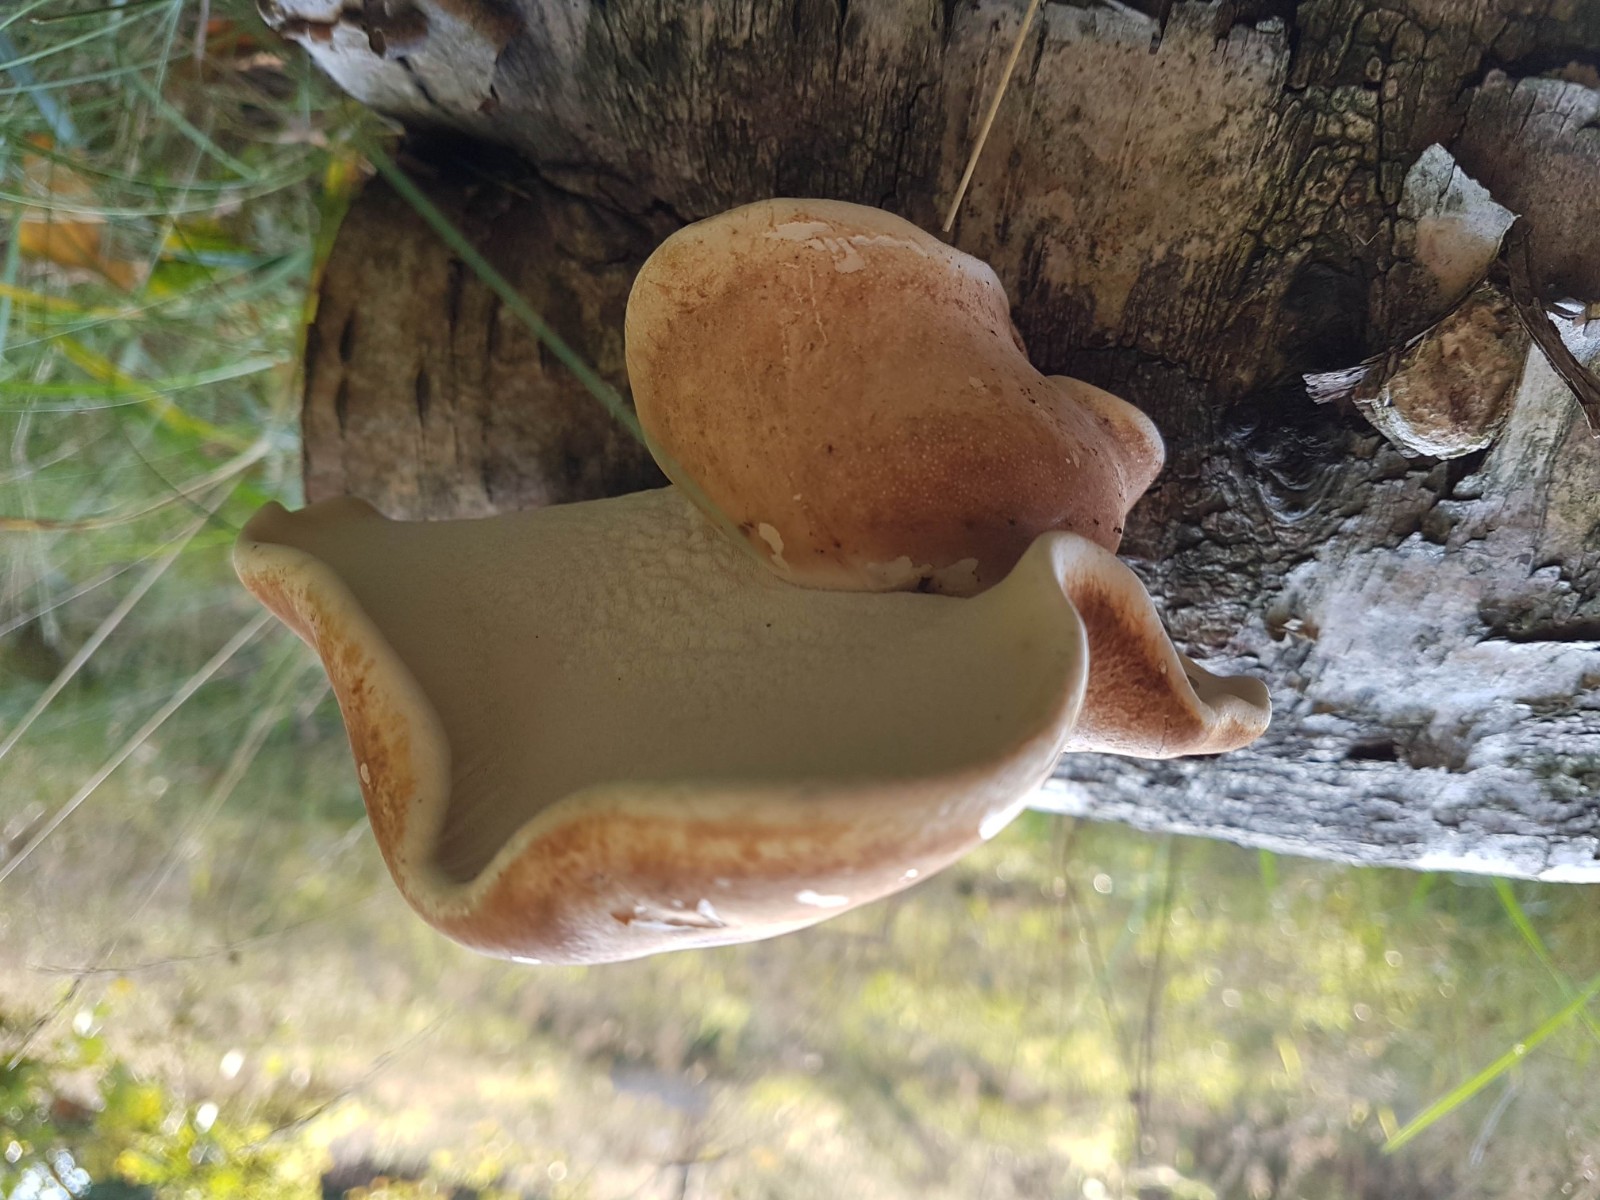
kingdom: Fungi
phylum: Basidiomycota
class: Agaricomycetes
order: Polyporales
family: Fomitopsidaceae
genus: Fomitopsis
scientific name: Fomitopsis betulina
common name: birkeporesvamp
